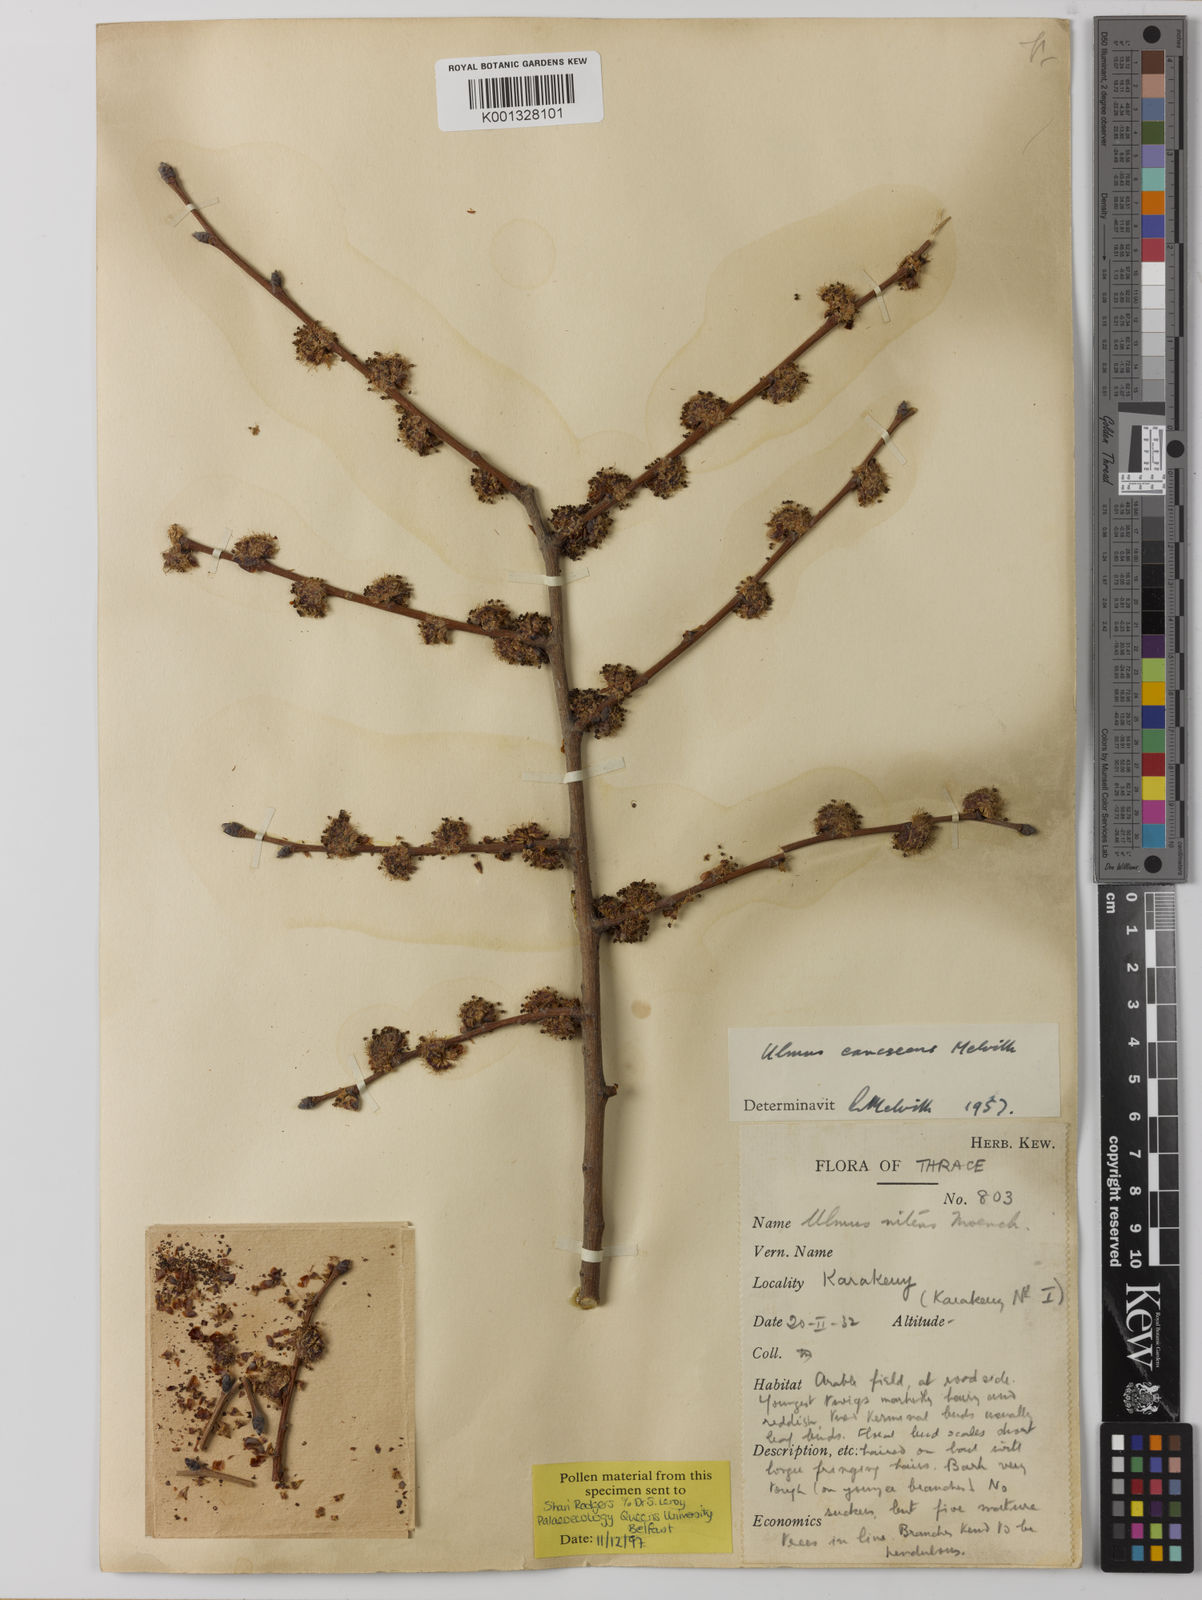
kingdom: Plantae
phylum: Tracheophyta
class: Magnoliopsida
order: Rosales
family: Ulmaceae
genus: Ulmus
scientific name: Ulmus minor
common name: Small-leaved elm
